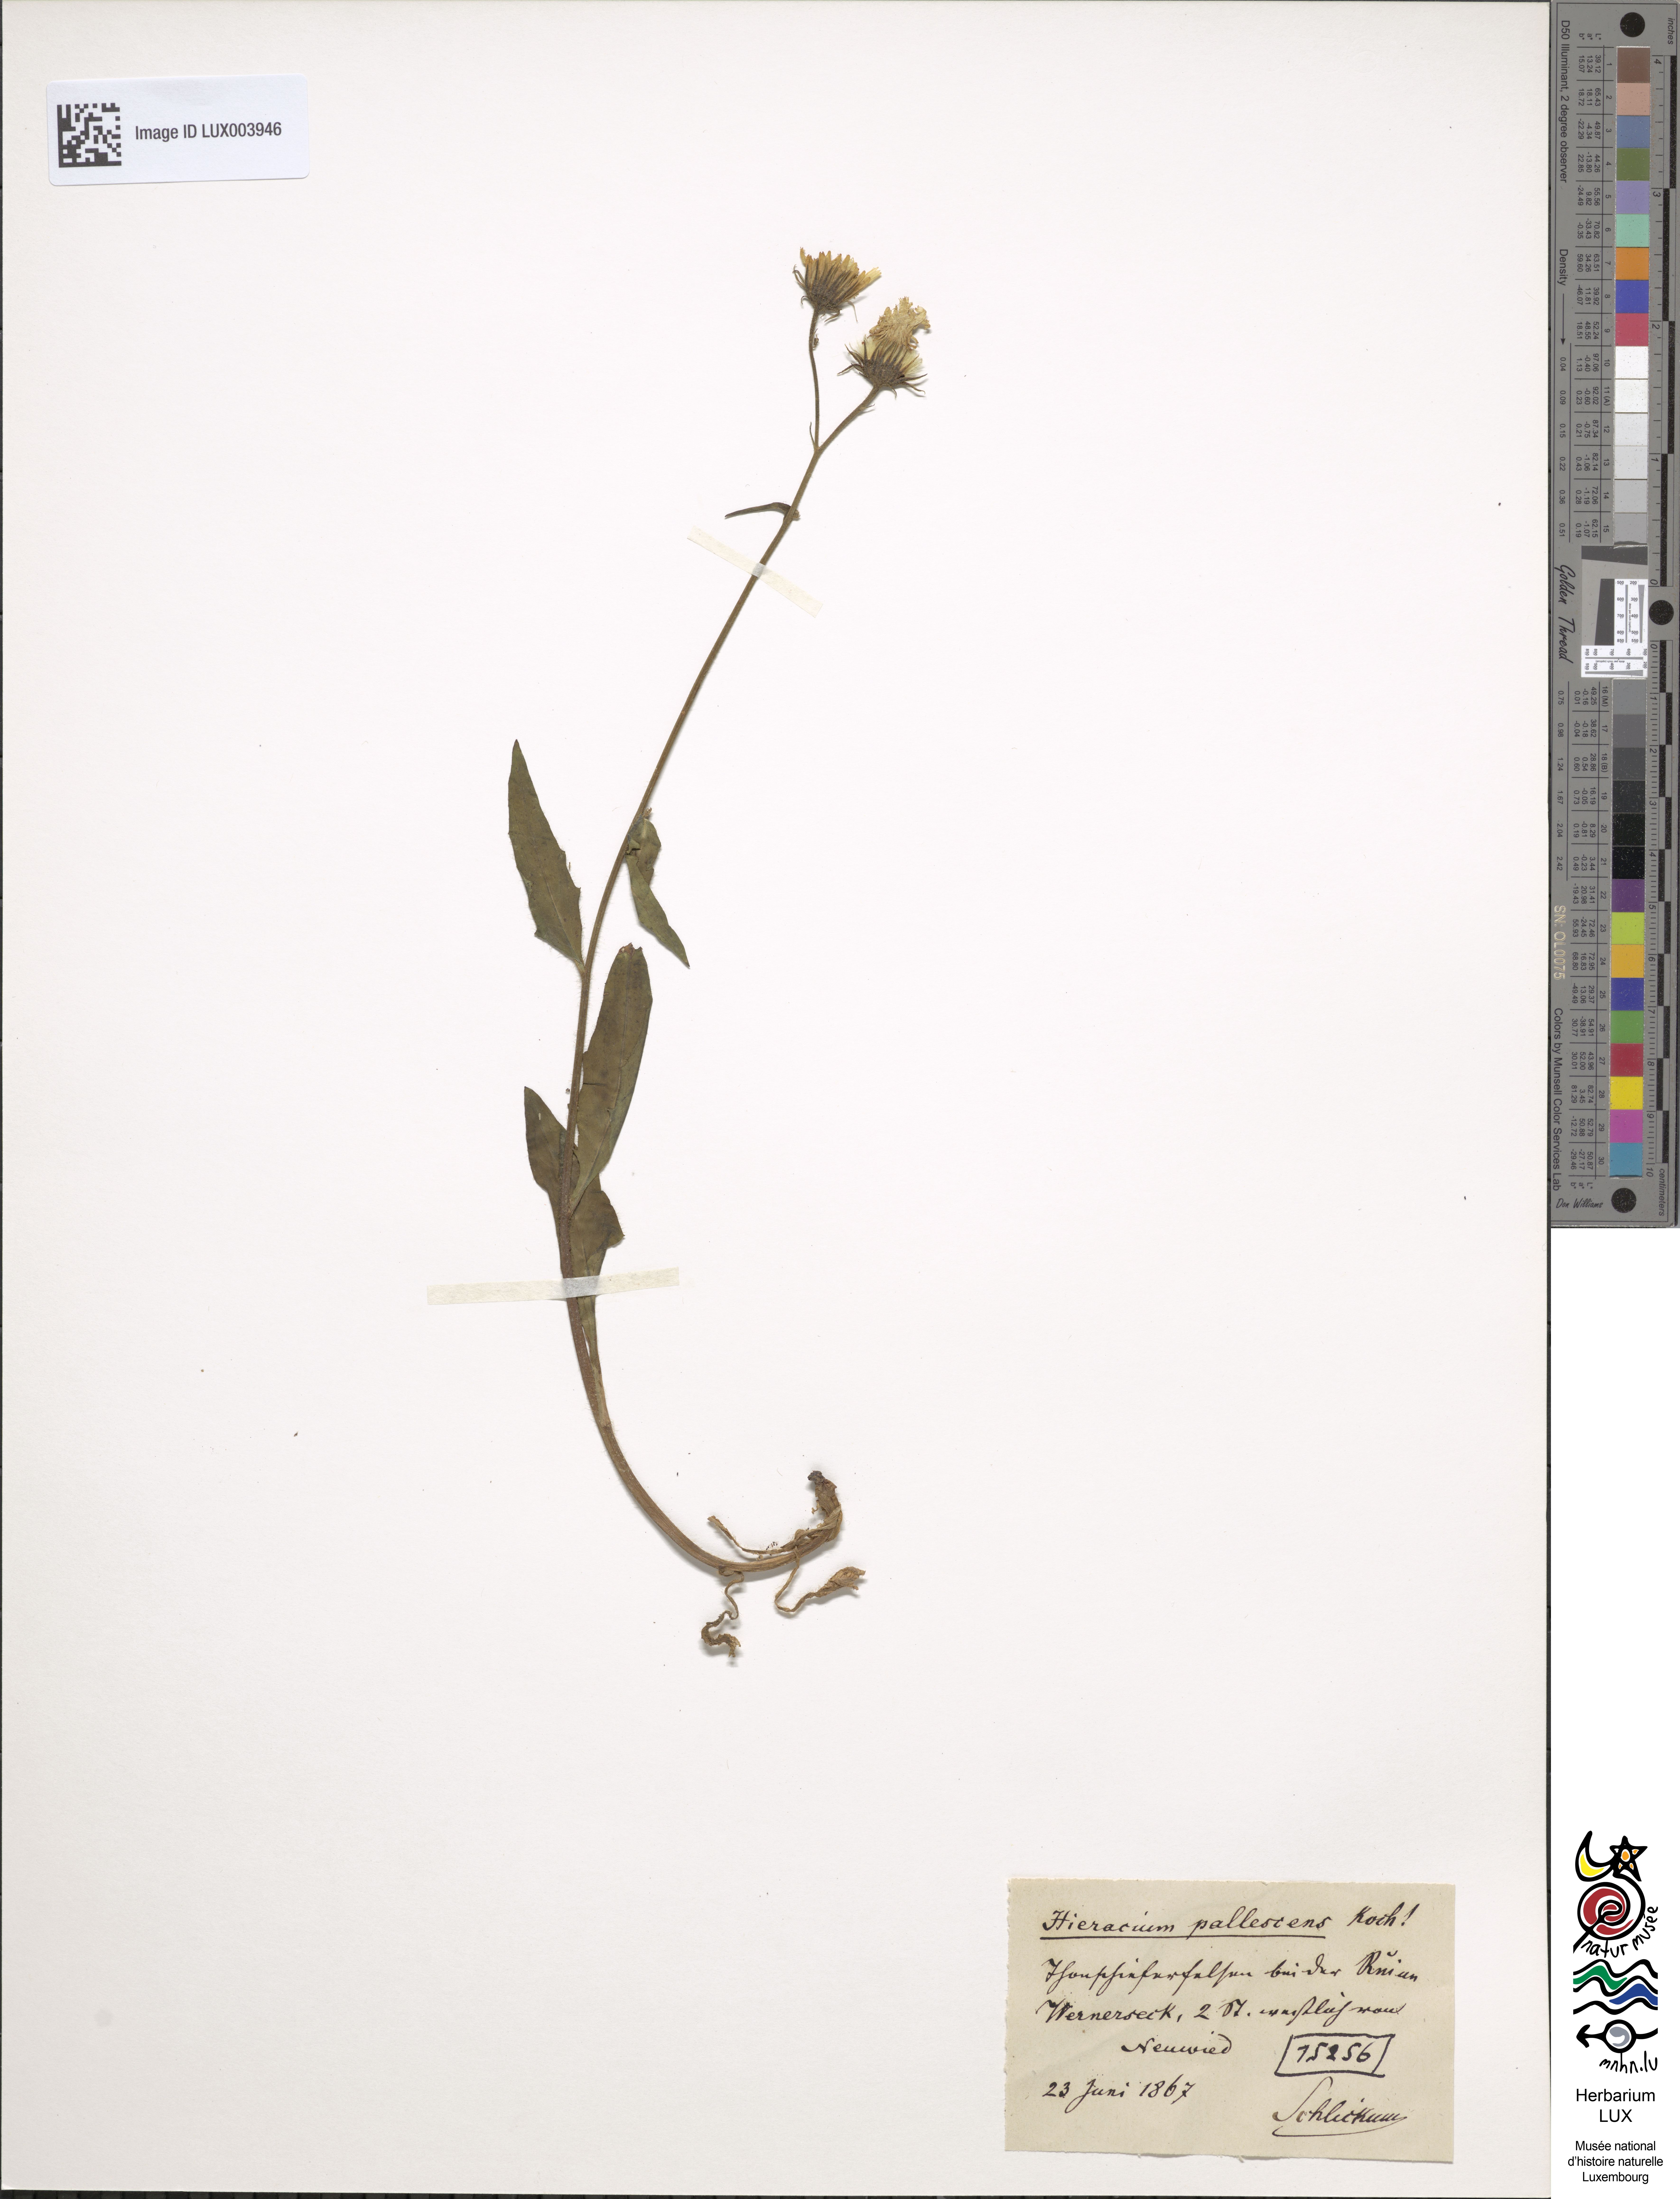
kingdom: Plantae
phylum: Tracheophyta
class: Magnoliopsida
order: Asterales
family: Asteraceae
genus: Hieracium
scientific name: Hieracium pallescens
